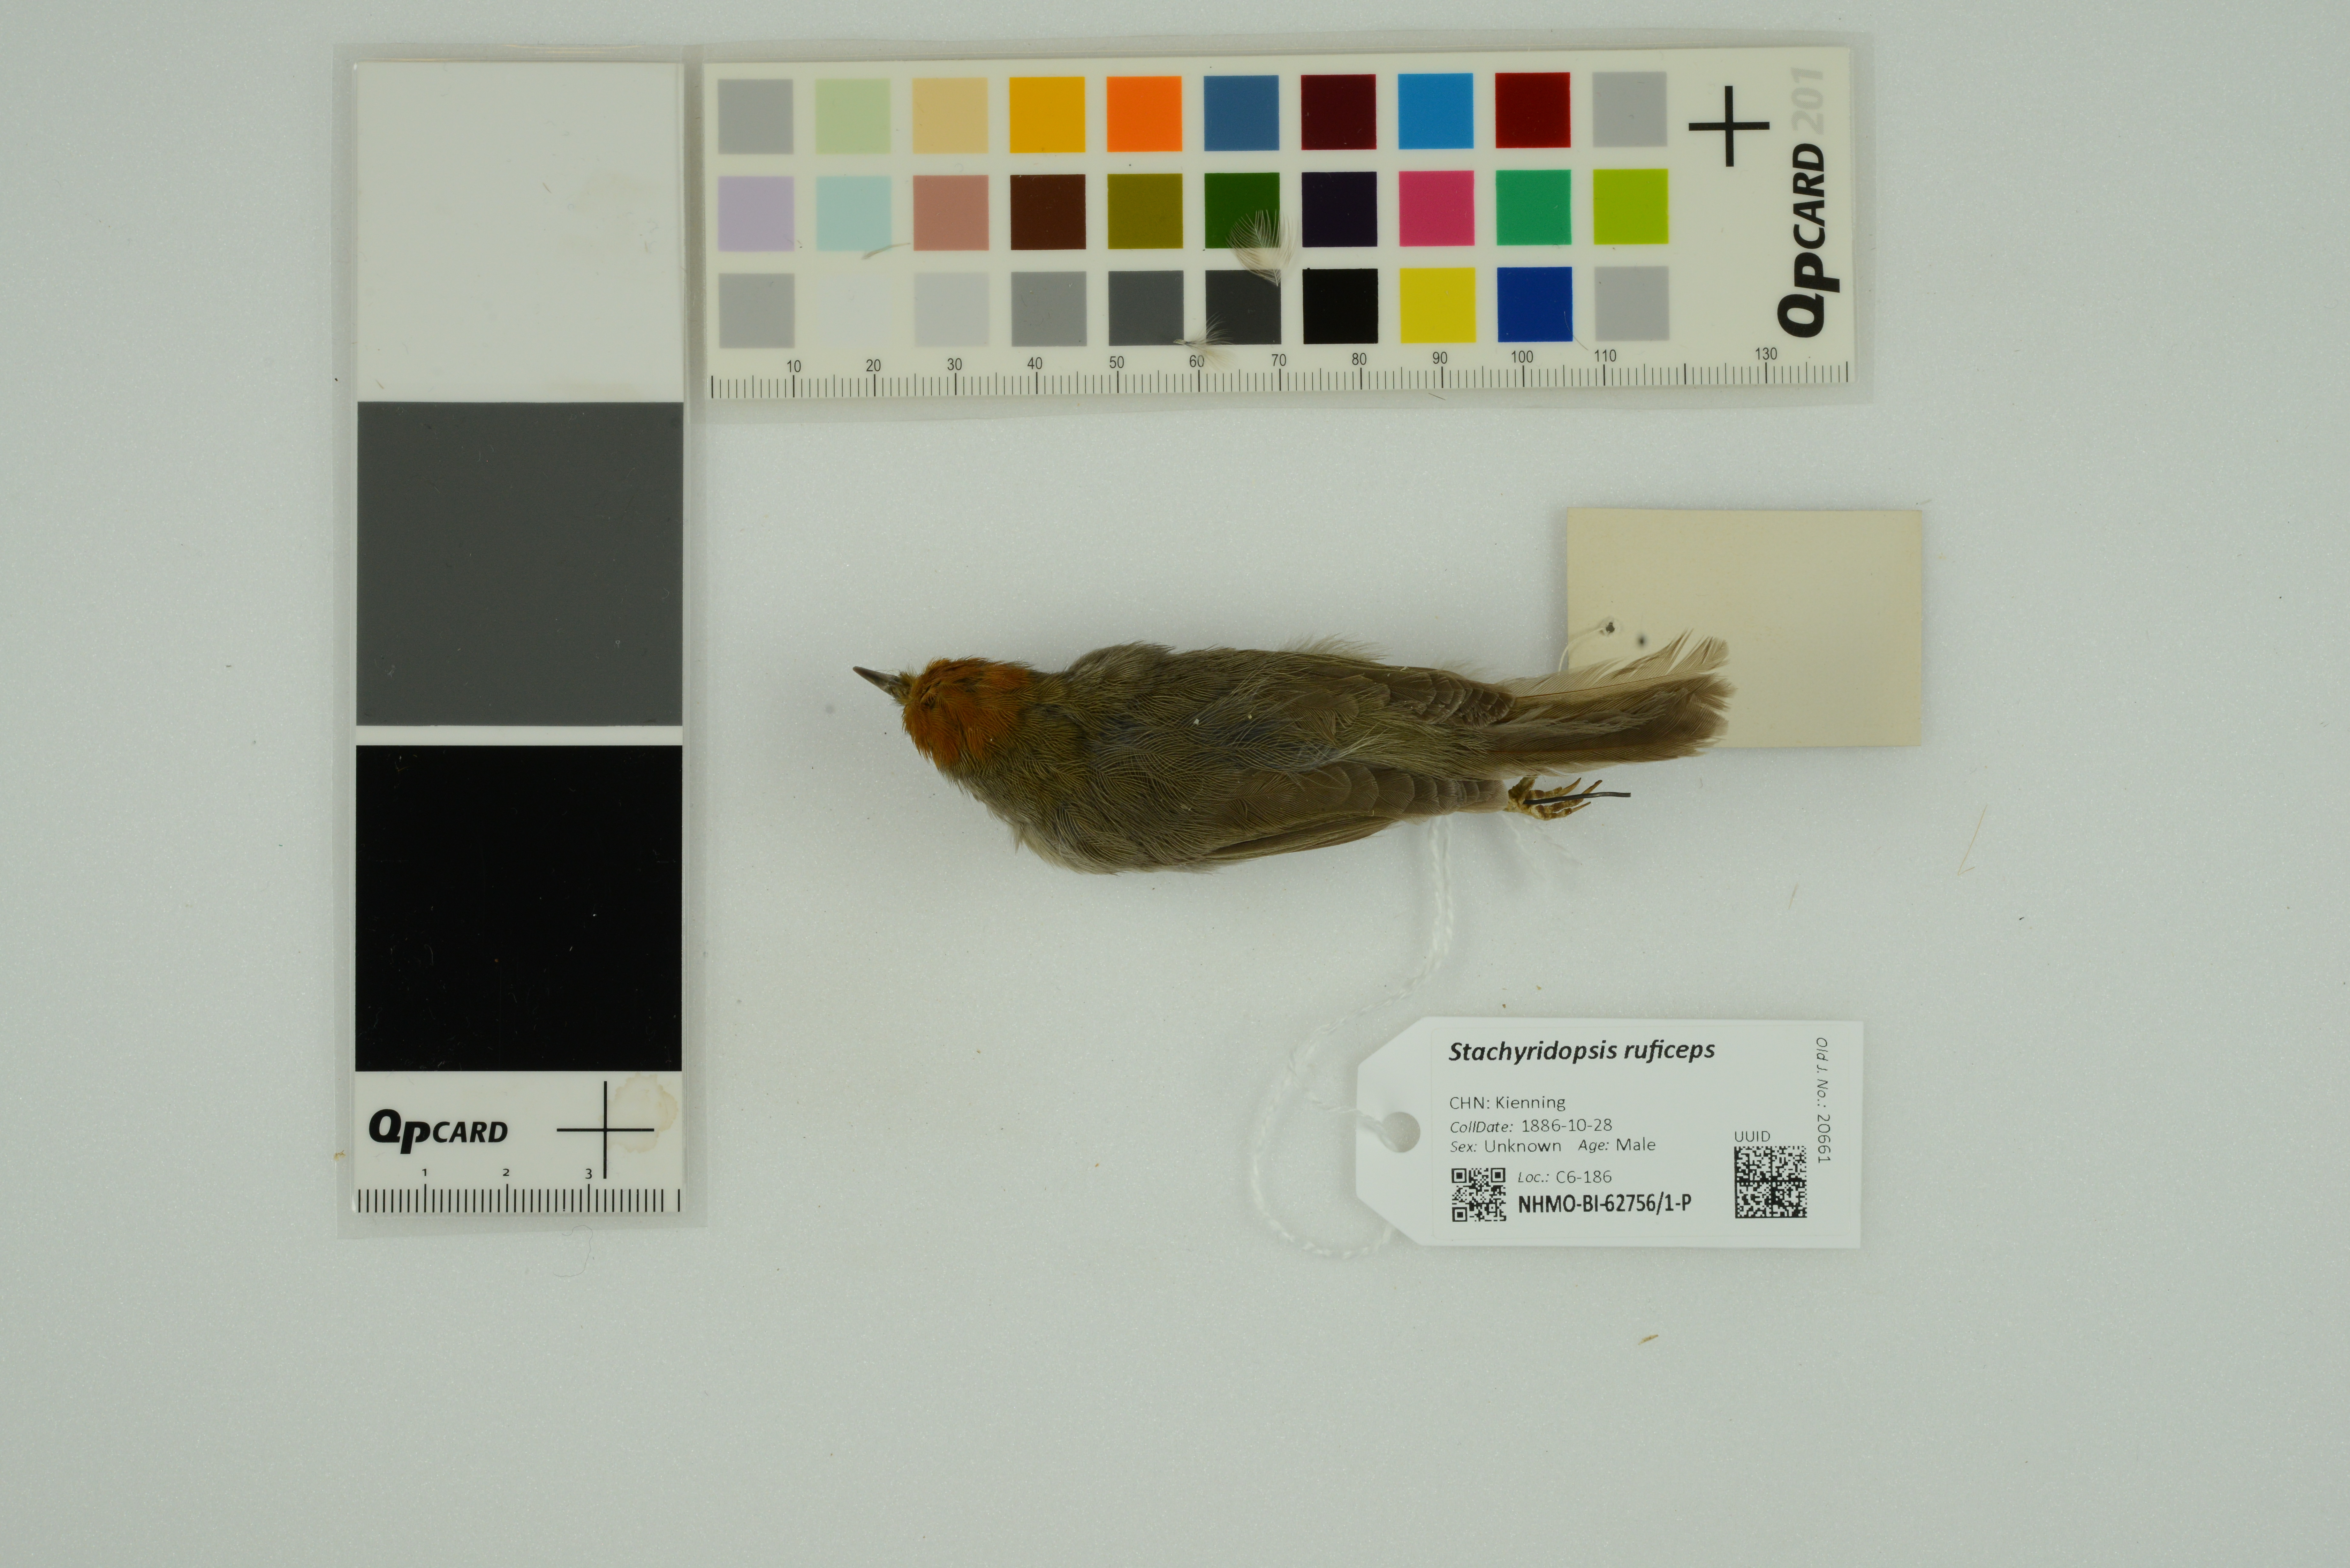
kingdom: Animalia
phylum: Chordata
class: Aves
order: Passeriformes
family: Timaliidae
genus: Stachyridopsis
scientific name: Stachyridopsis ruficeps
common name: Rufous-capped babbler
